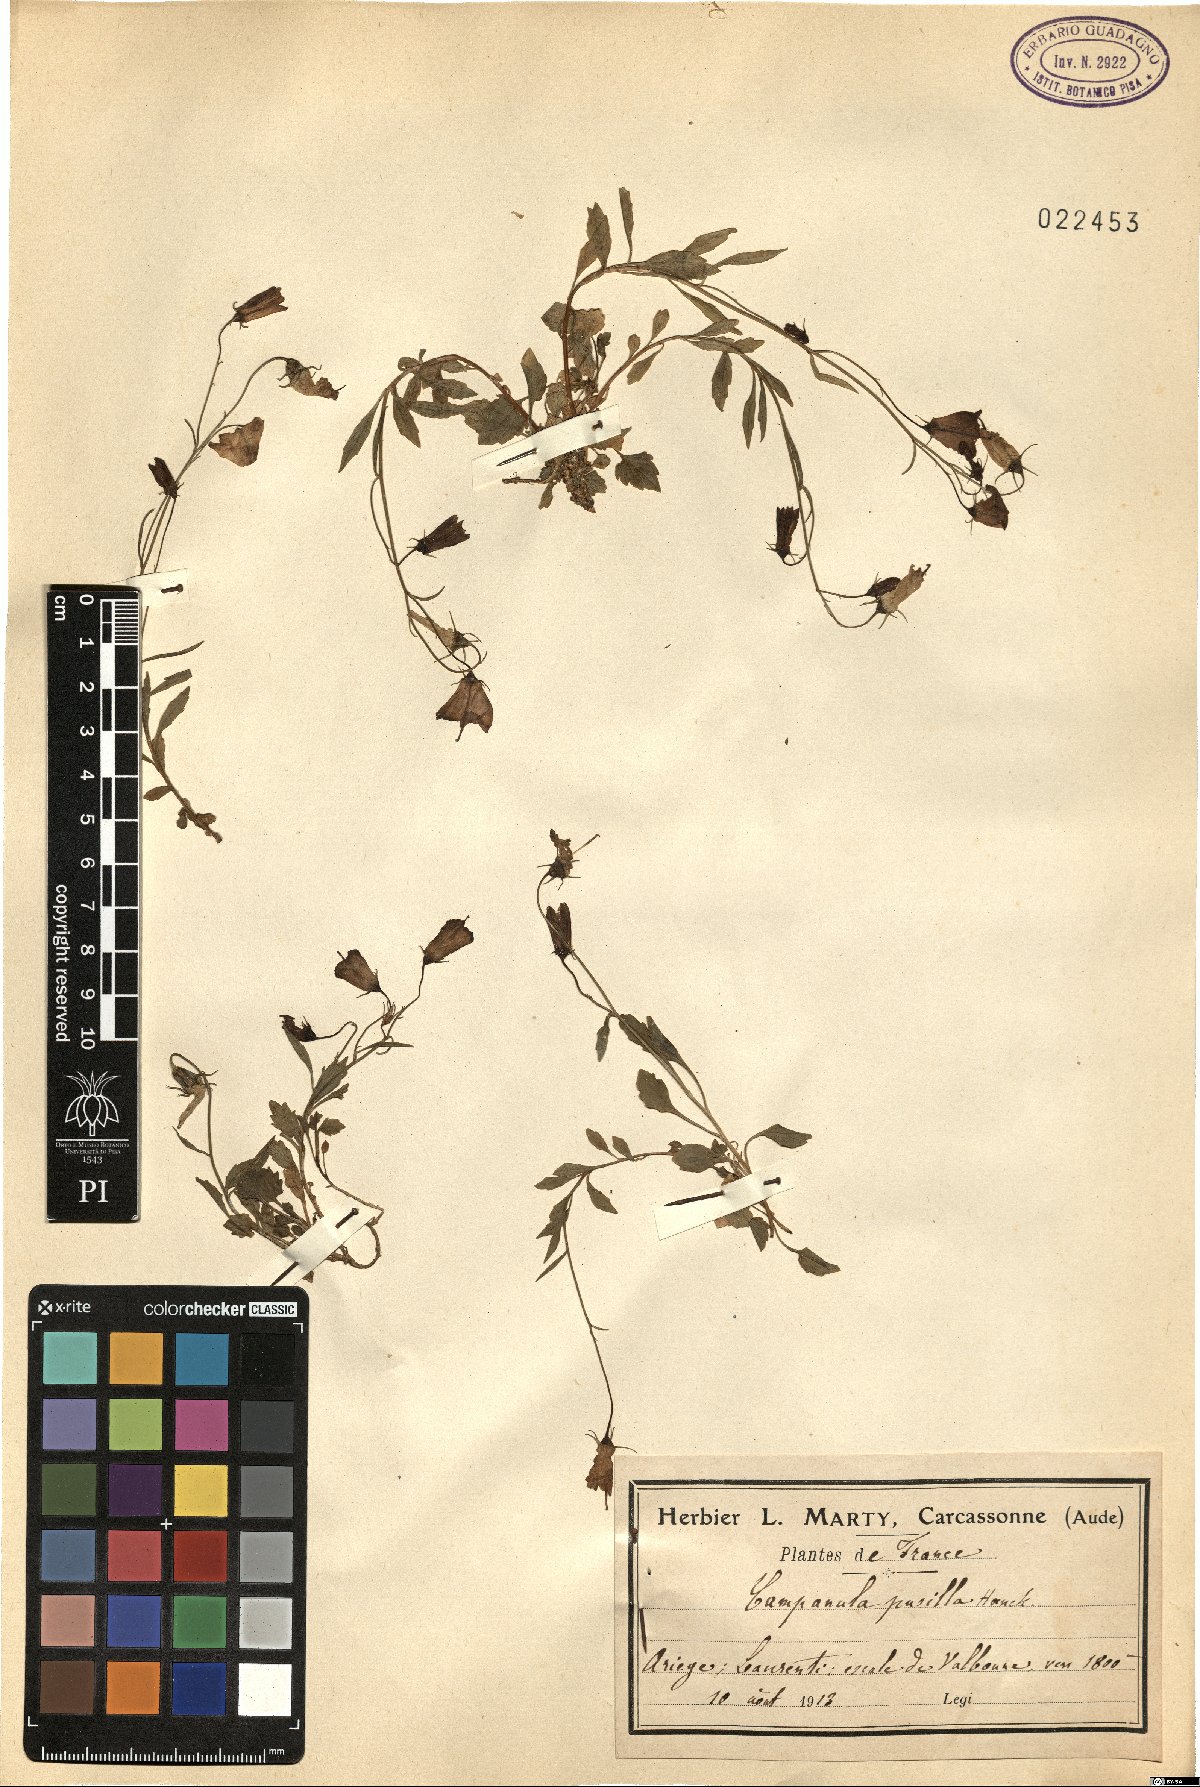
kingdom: Plantae
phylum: Tracheophyta
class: Magnoliopsida
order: Asterales
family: Campanulaceae
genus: Campanula
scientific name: Campanula cochleariifolia
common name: Fairies'-thimbles
